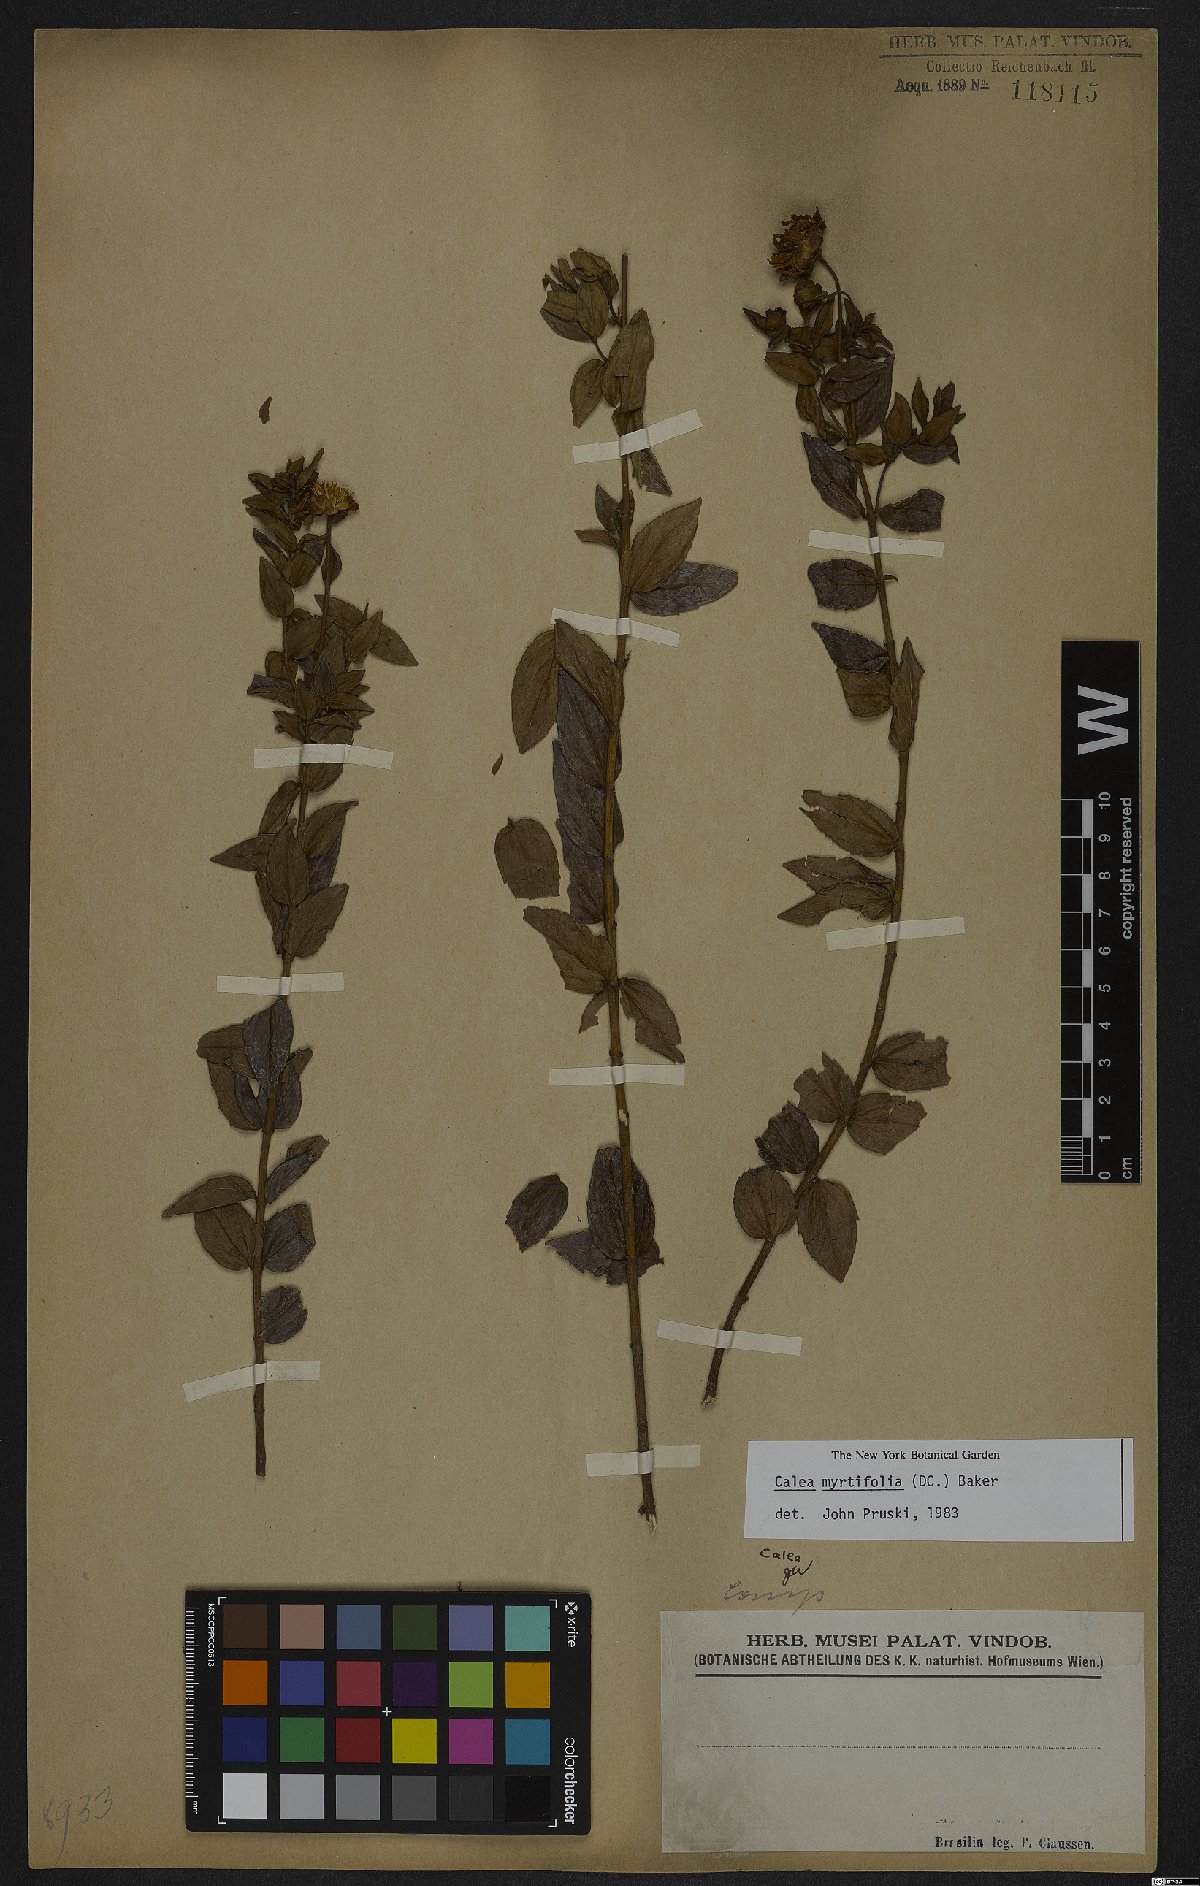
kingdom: Plantae
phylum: Tracheophyta
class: Magnoliopsida
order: Asterales
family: Asteraceae
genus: Calea
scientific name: Calea myrtifolia
